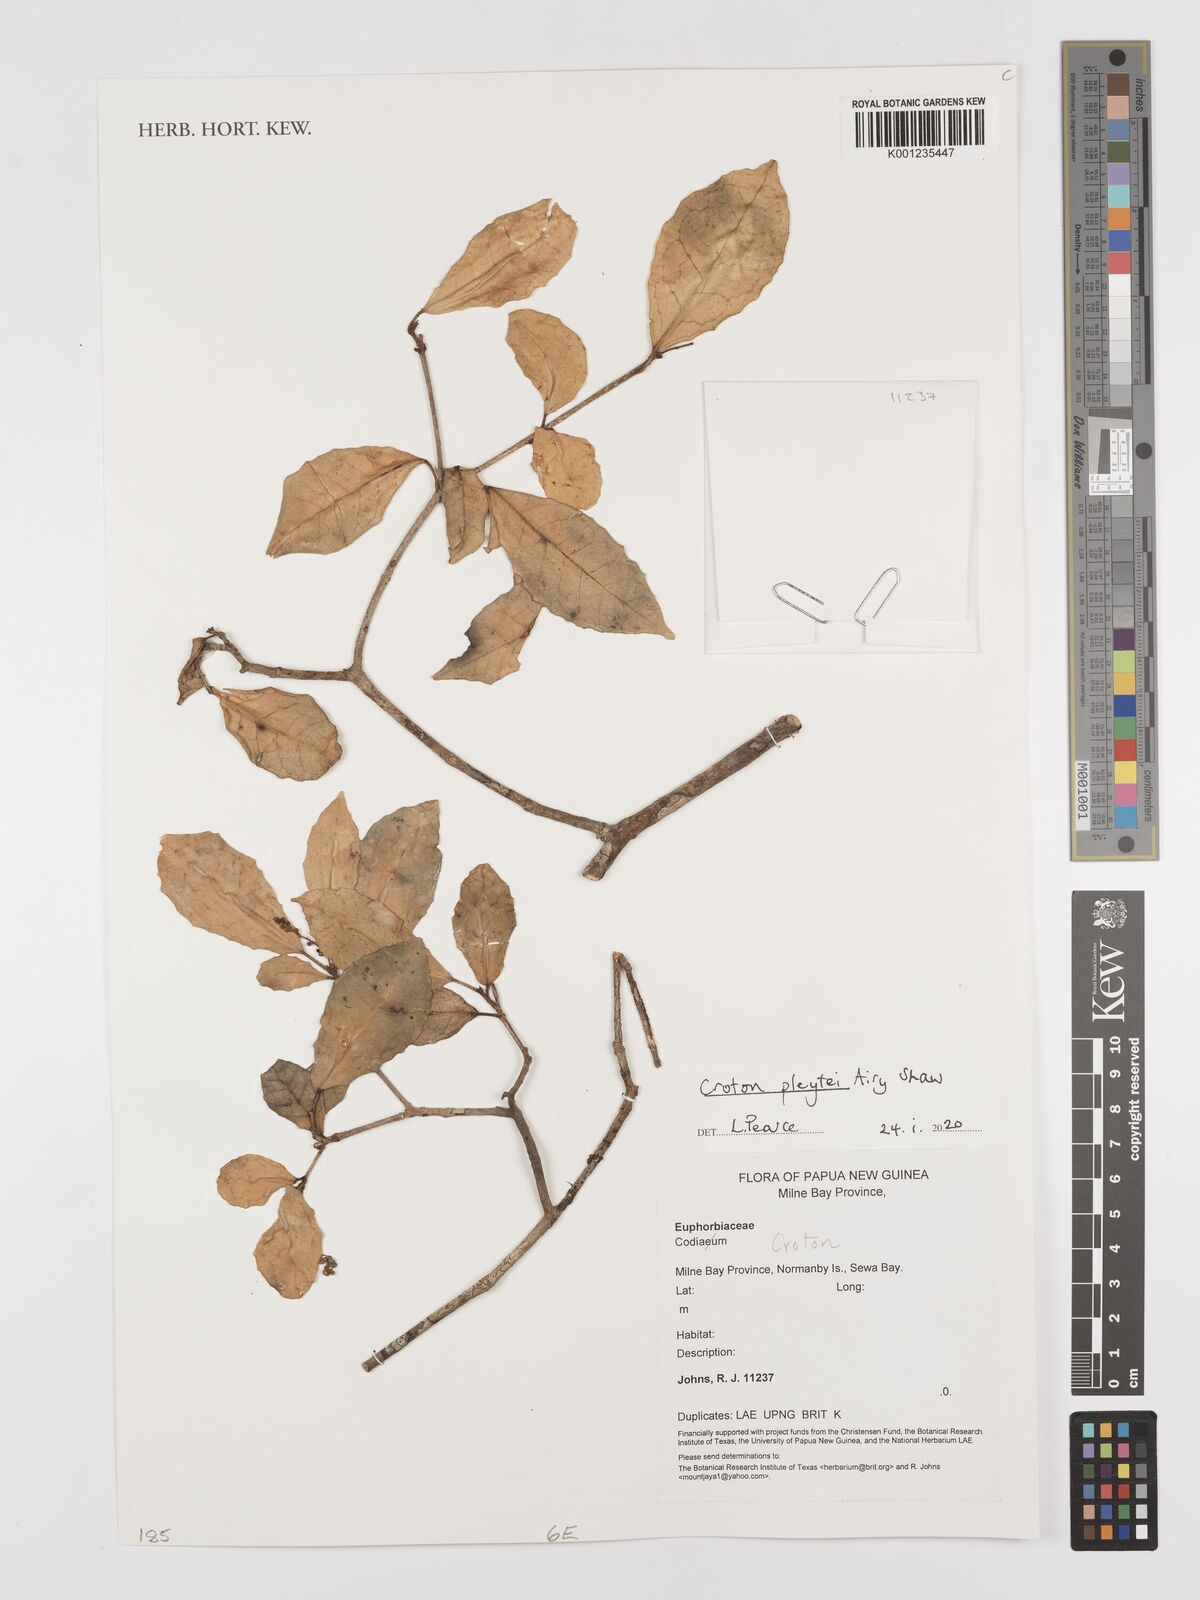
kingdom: Plantae
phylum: Tracheophyta
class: Magnoliopsida
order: Malpighiales
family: Euphorbiaceae
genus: Croton
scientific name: Croton pleytei
